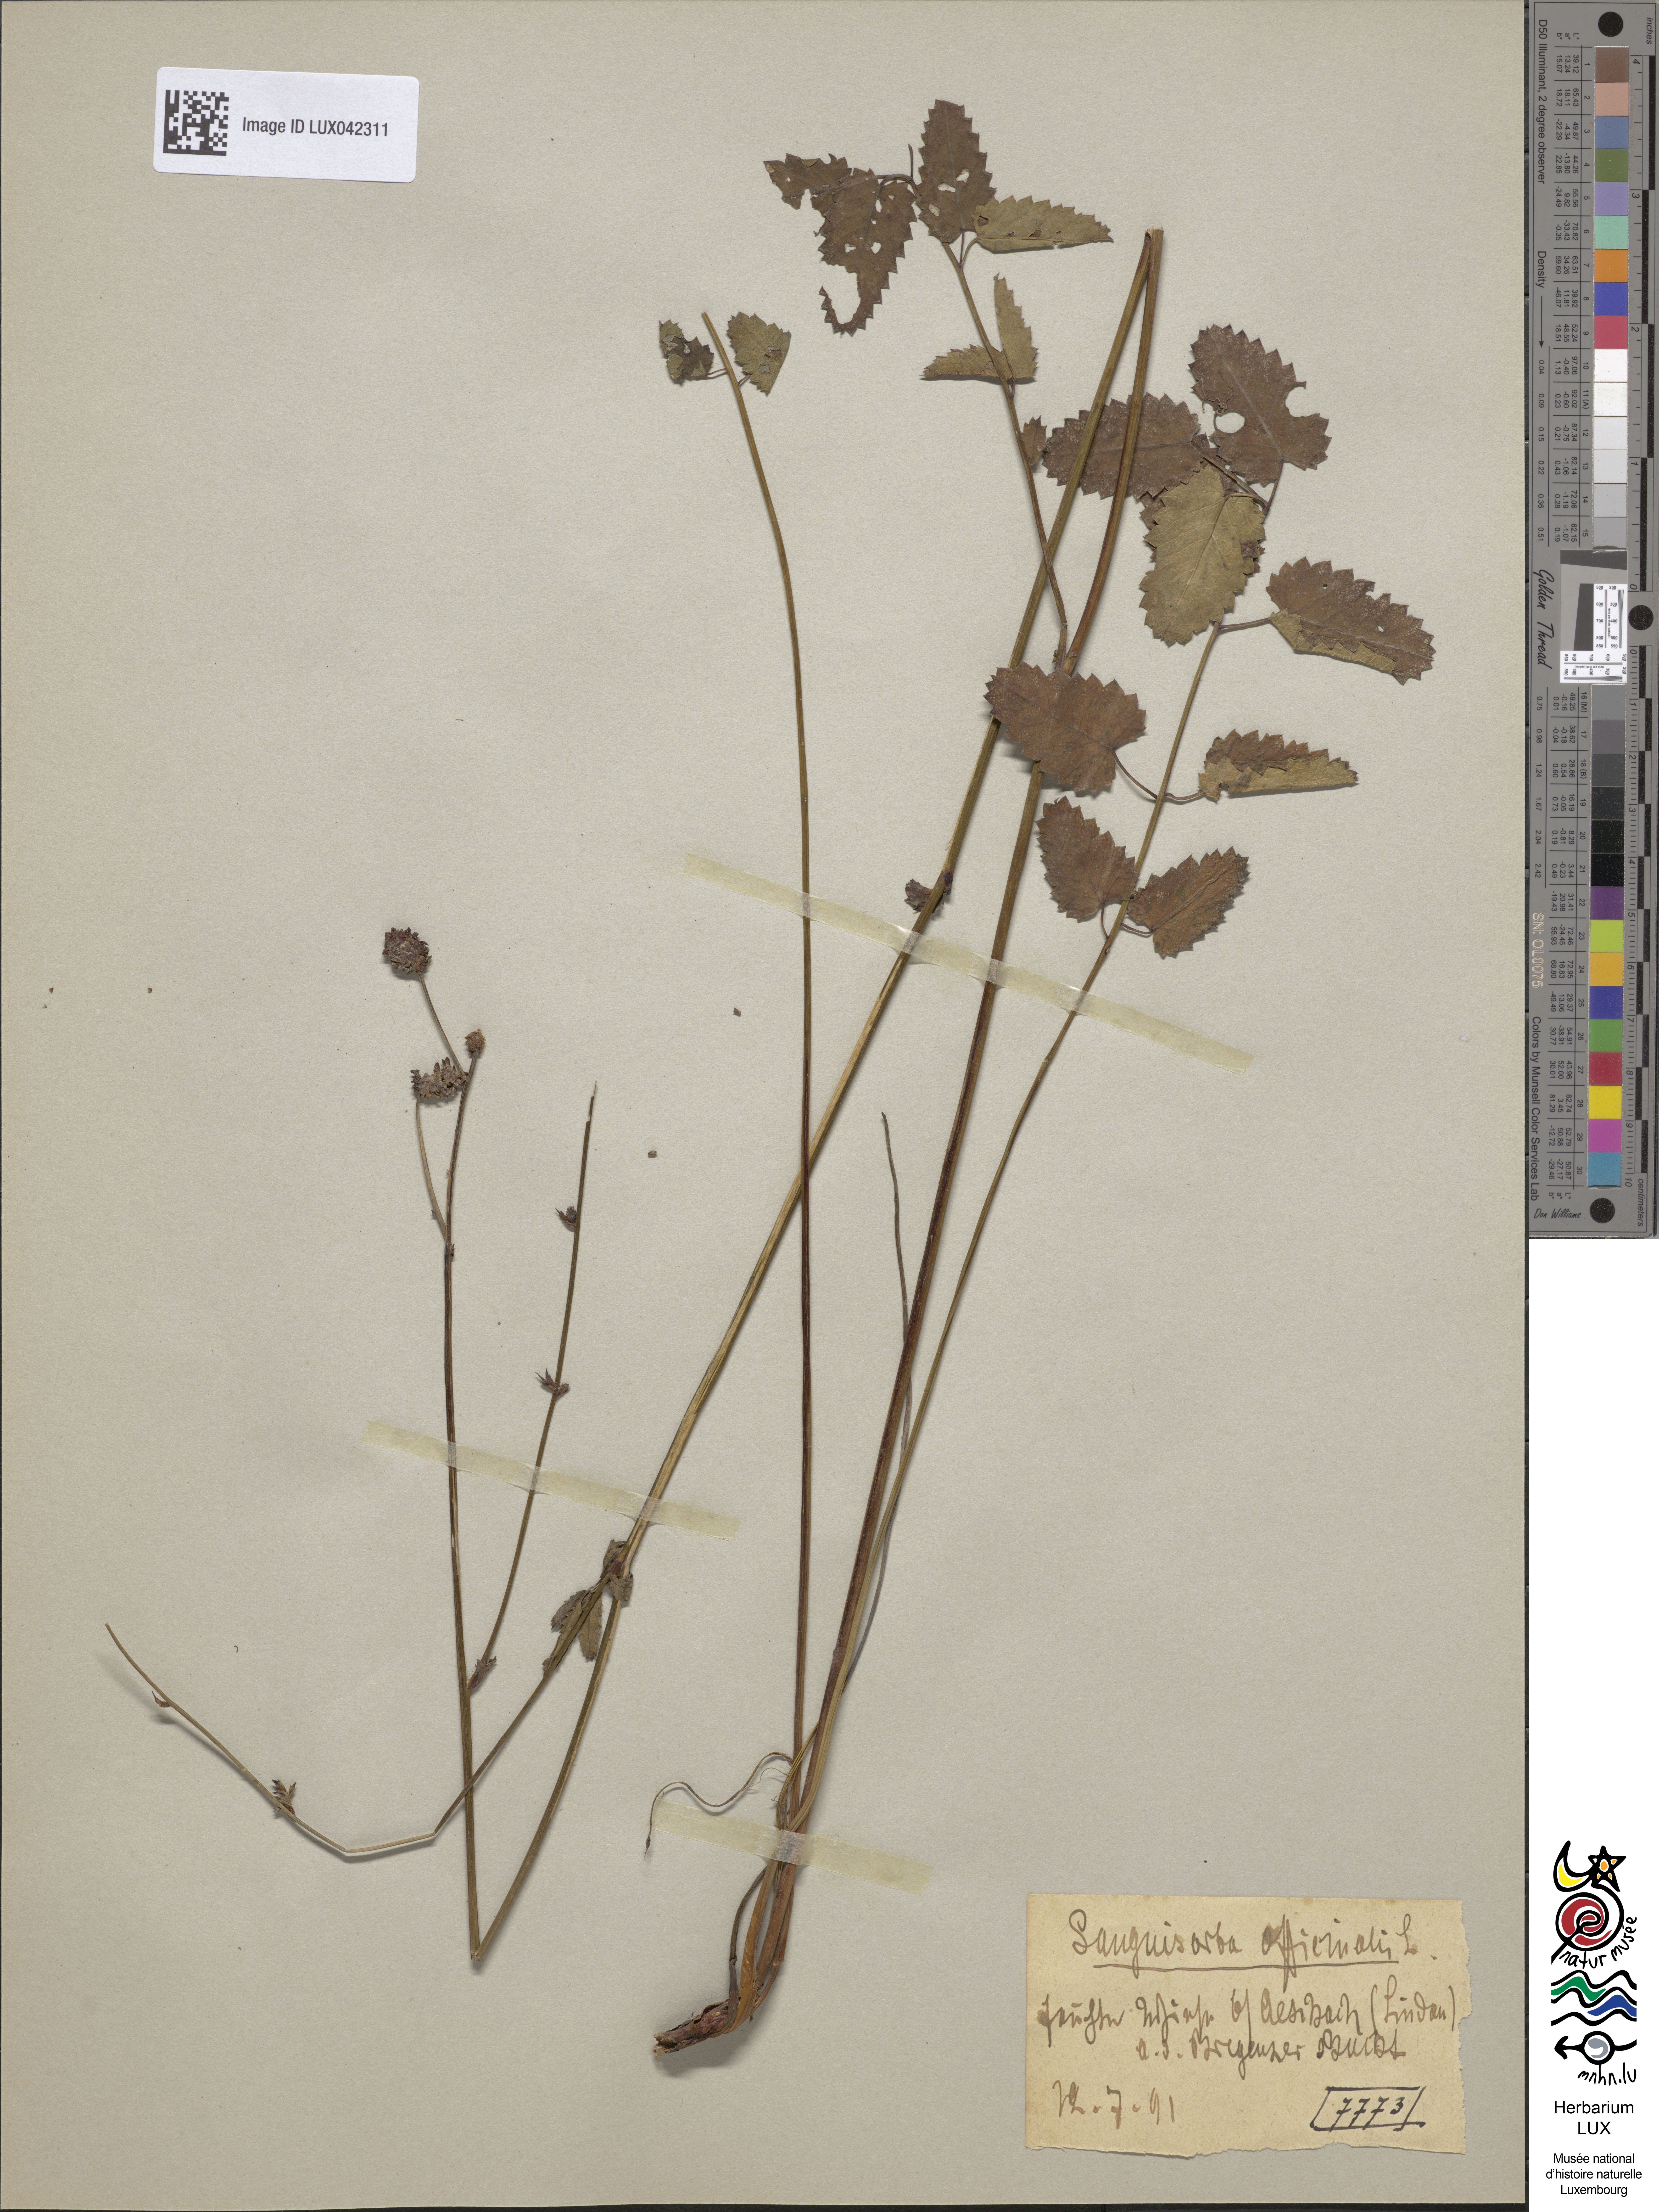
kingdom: Plantae
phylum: Tracheophyta
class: Magnoliopsida
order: Rosales
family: Rosaceae
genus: Sanguisorba
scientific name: Sanguisorba officinalis
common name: Great burnet
